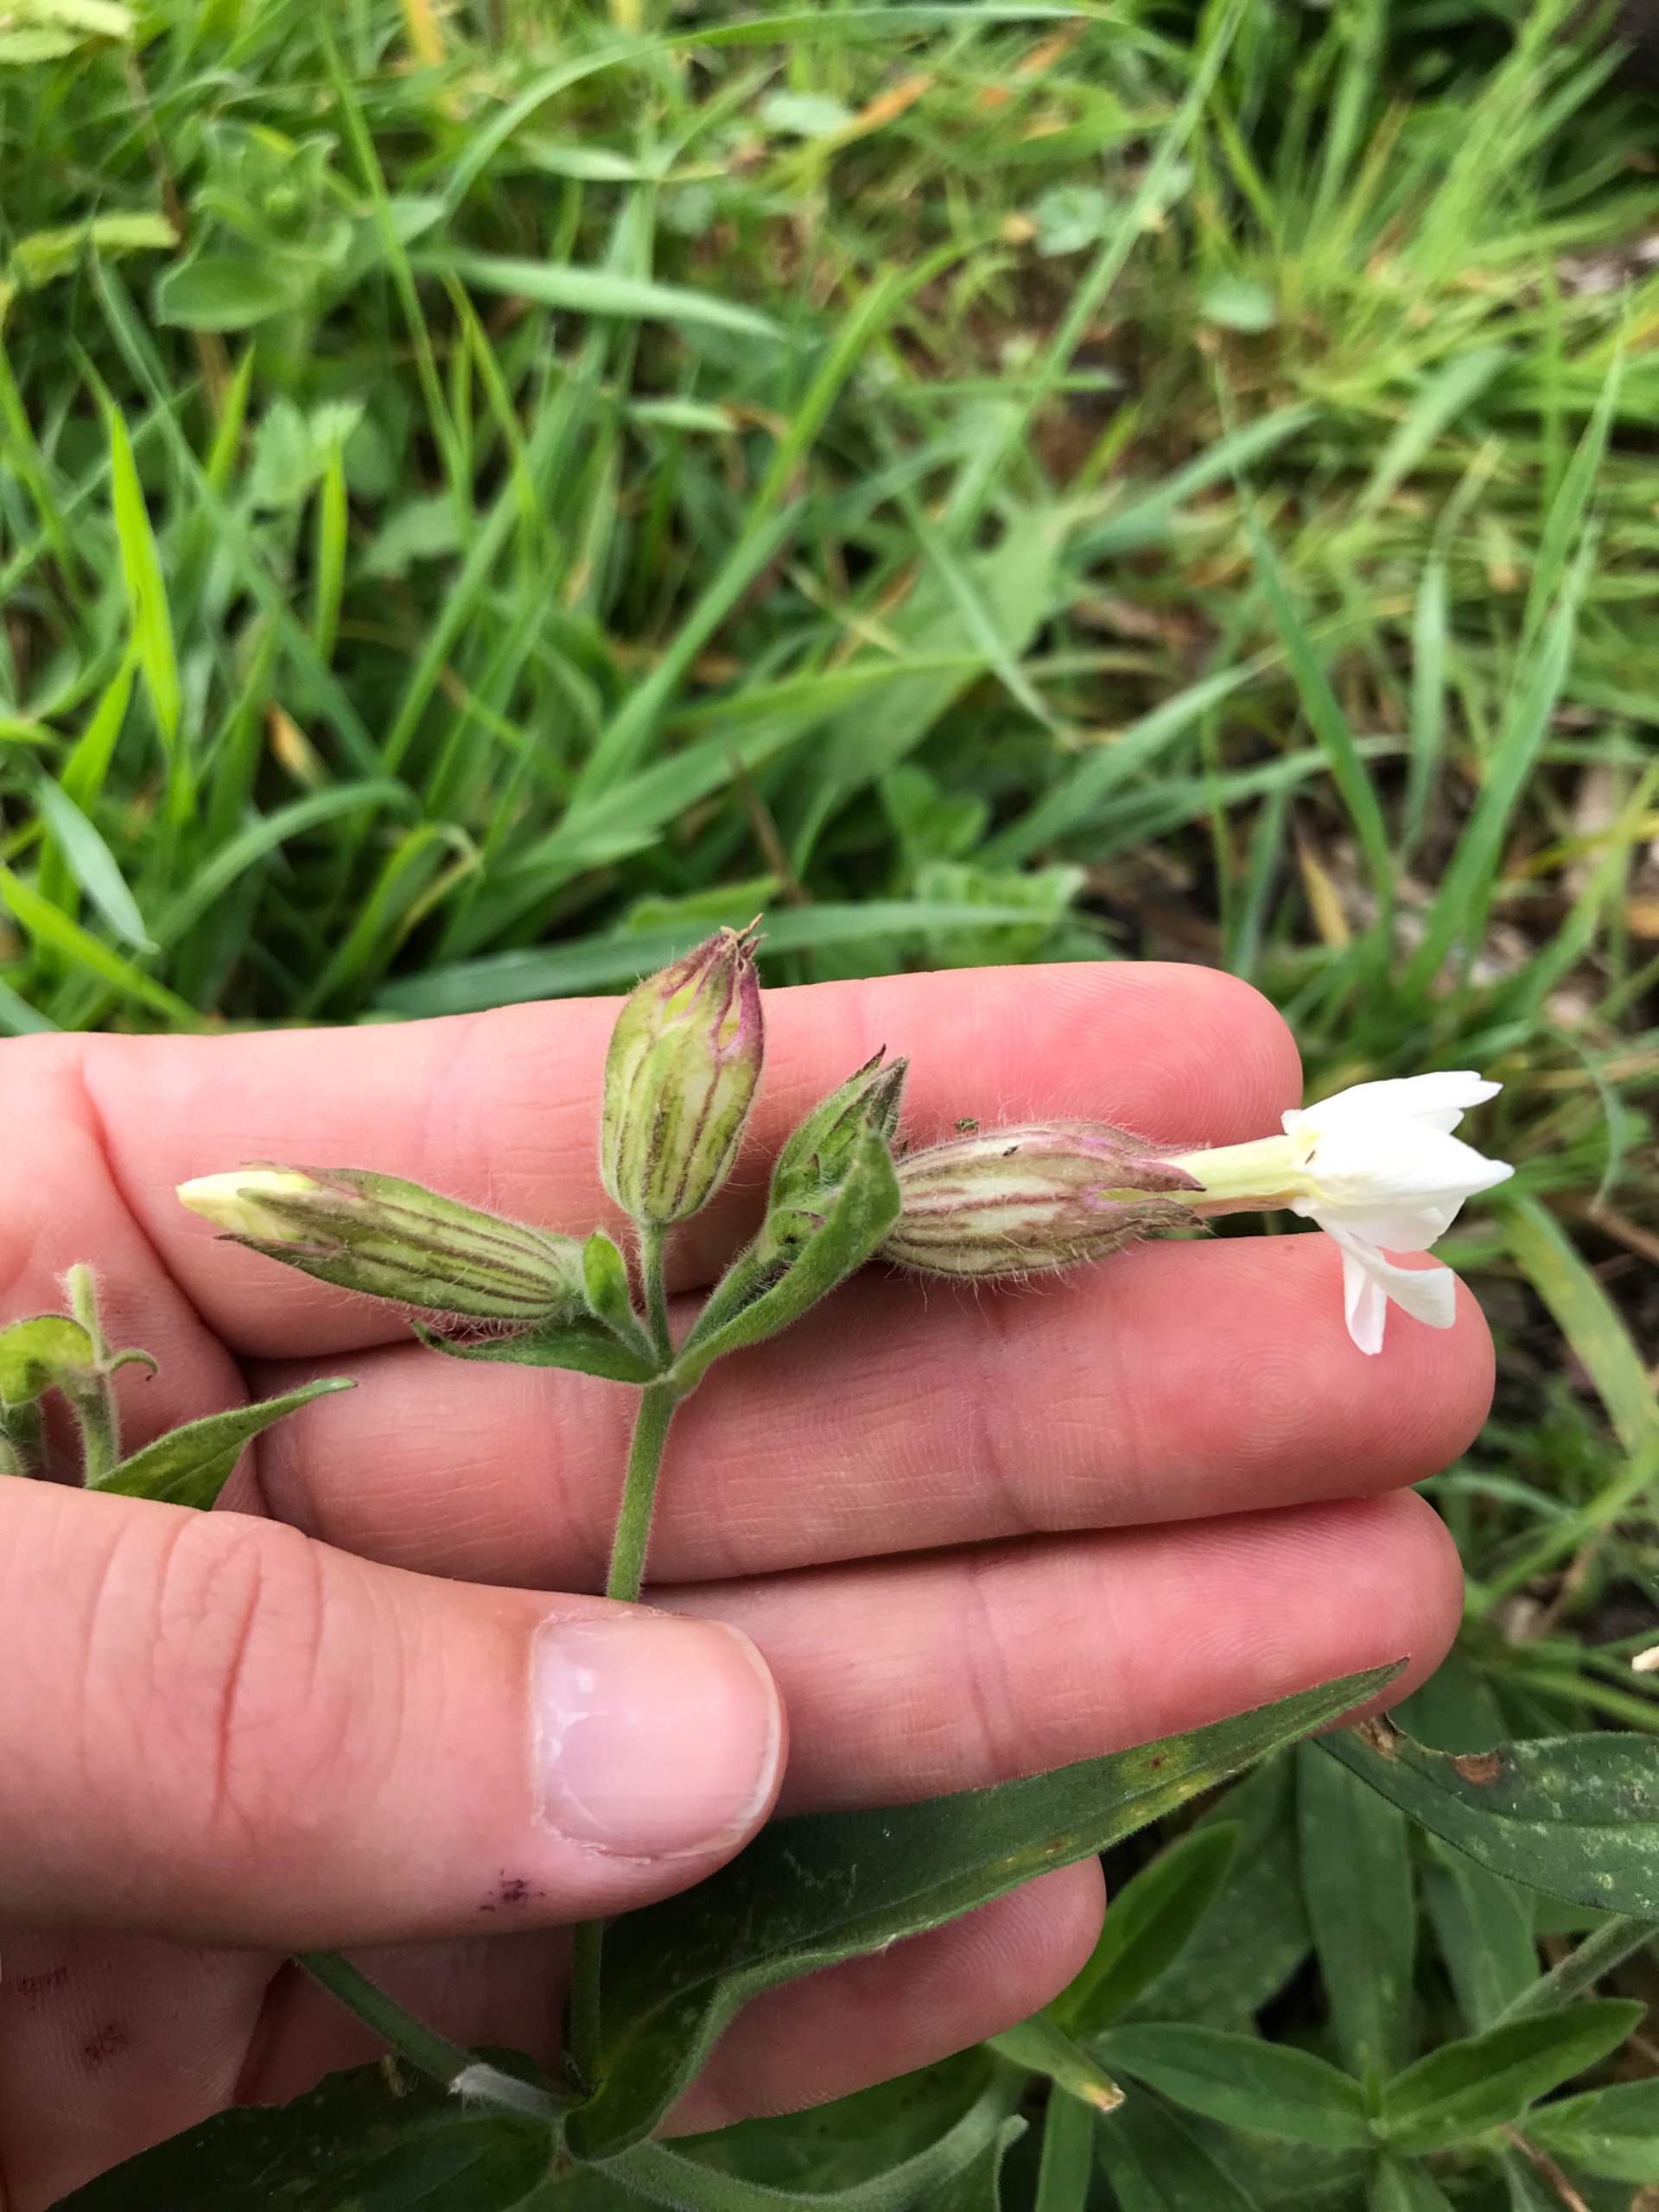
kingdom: Plantae
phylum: Tracheophyta
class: Magnoliopsida
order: Caryophyllales
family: Caryophyllaceae
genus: Silene
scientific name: Silene latifolia
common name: Aftenpragtstjerne
